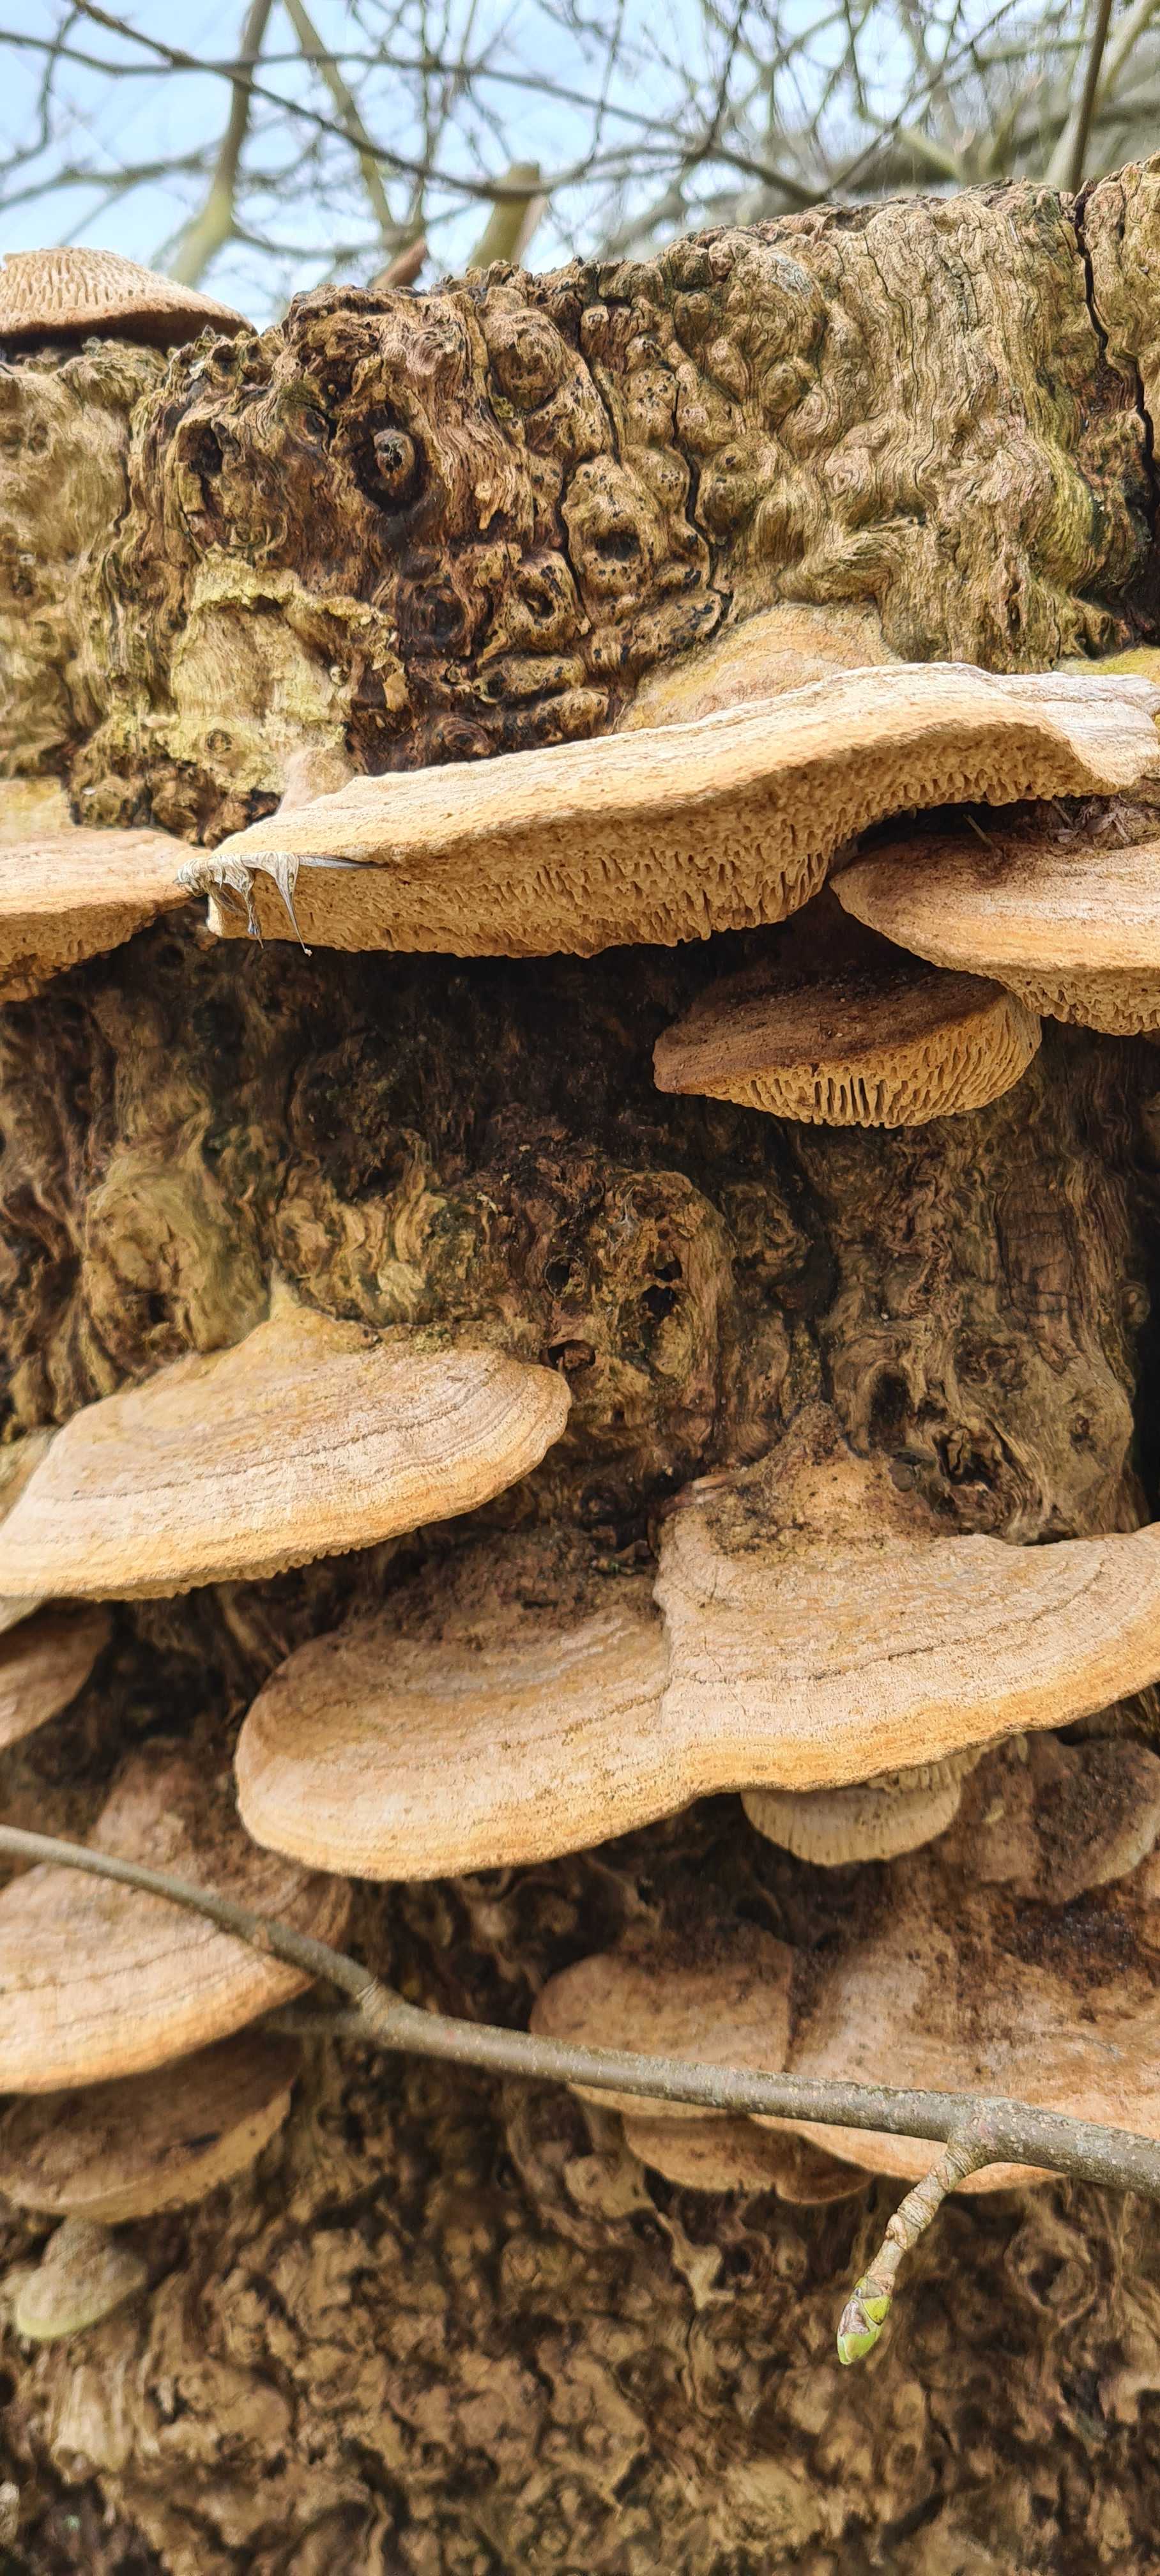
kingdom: Fungi
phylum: Basidiomycota
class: Agaricomycetes
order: Polyporales
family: Fomitopsidaceae
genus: Daedalea
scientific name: Daedalea quercina
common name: ege-labyrintsvamp
